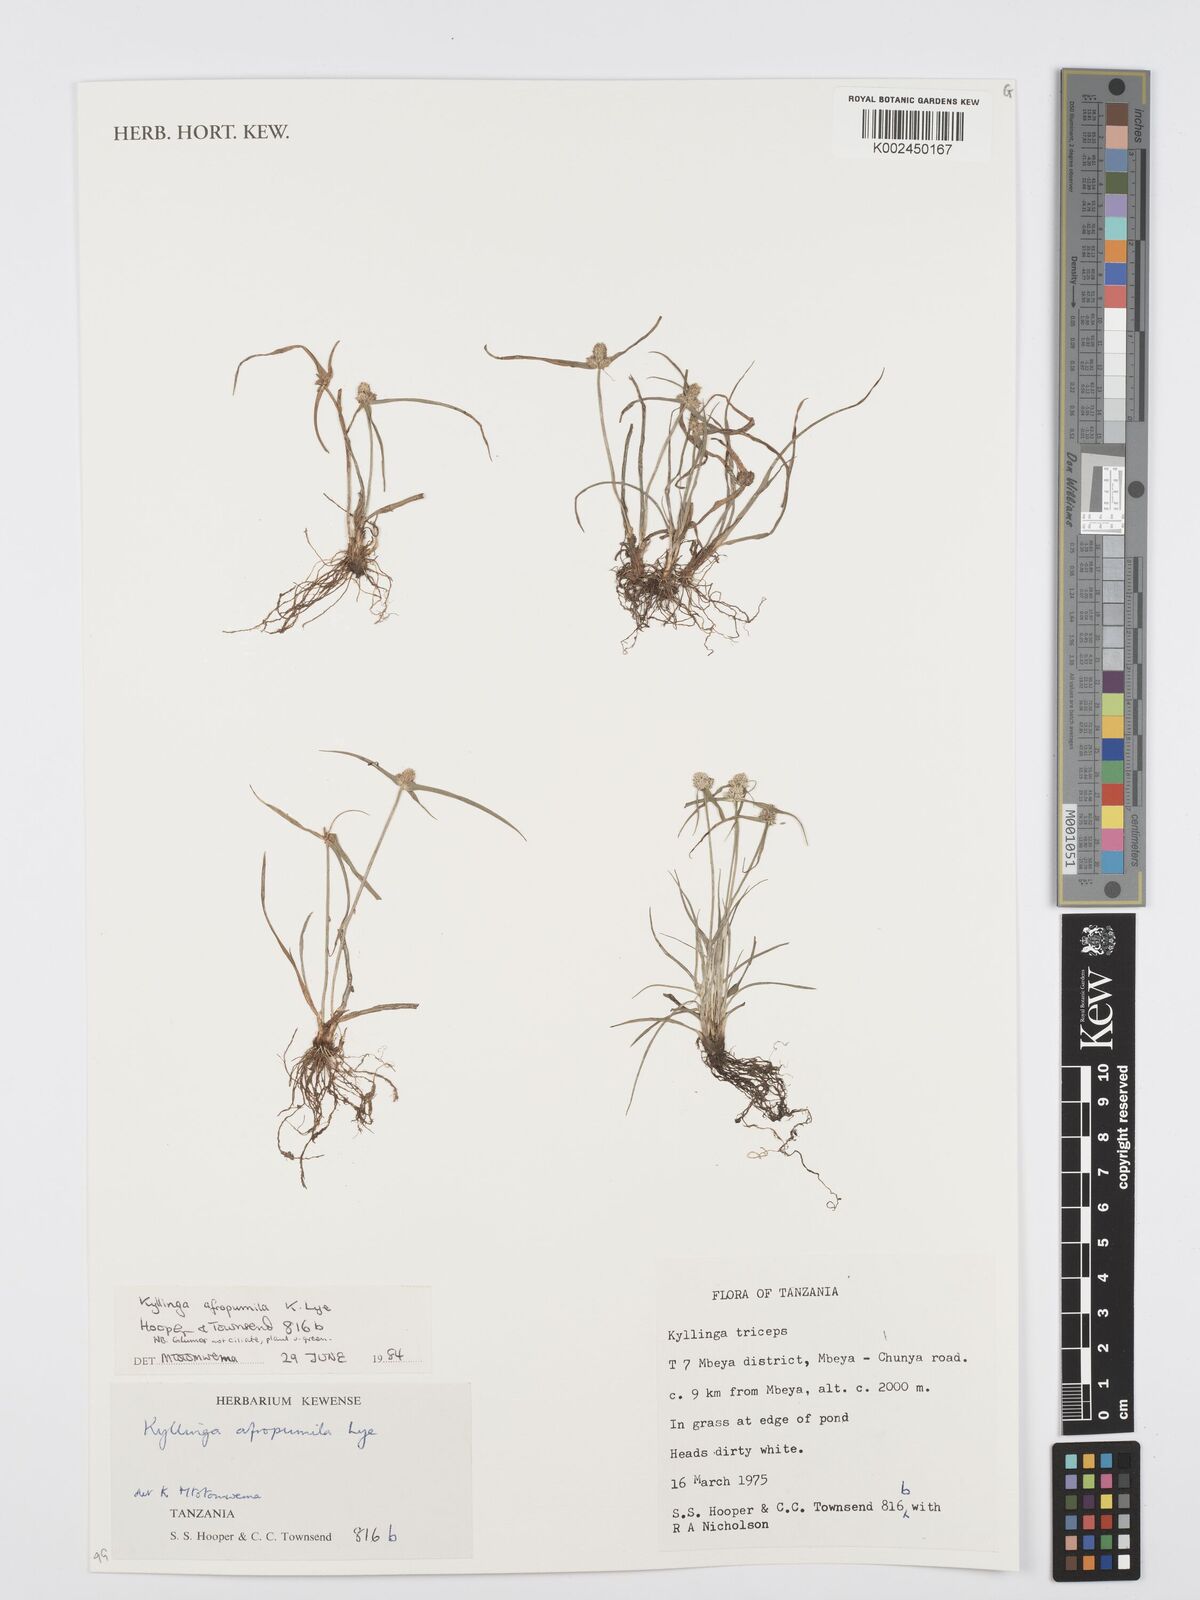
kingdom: Plantae
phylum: Tracheophyta
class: Liliopsida
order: Poales
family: Cyperaceae
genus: Cyperus
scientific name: Cyperus afropumilus
